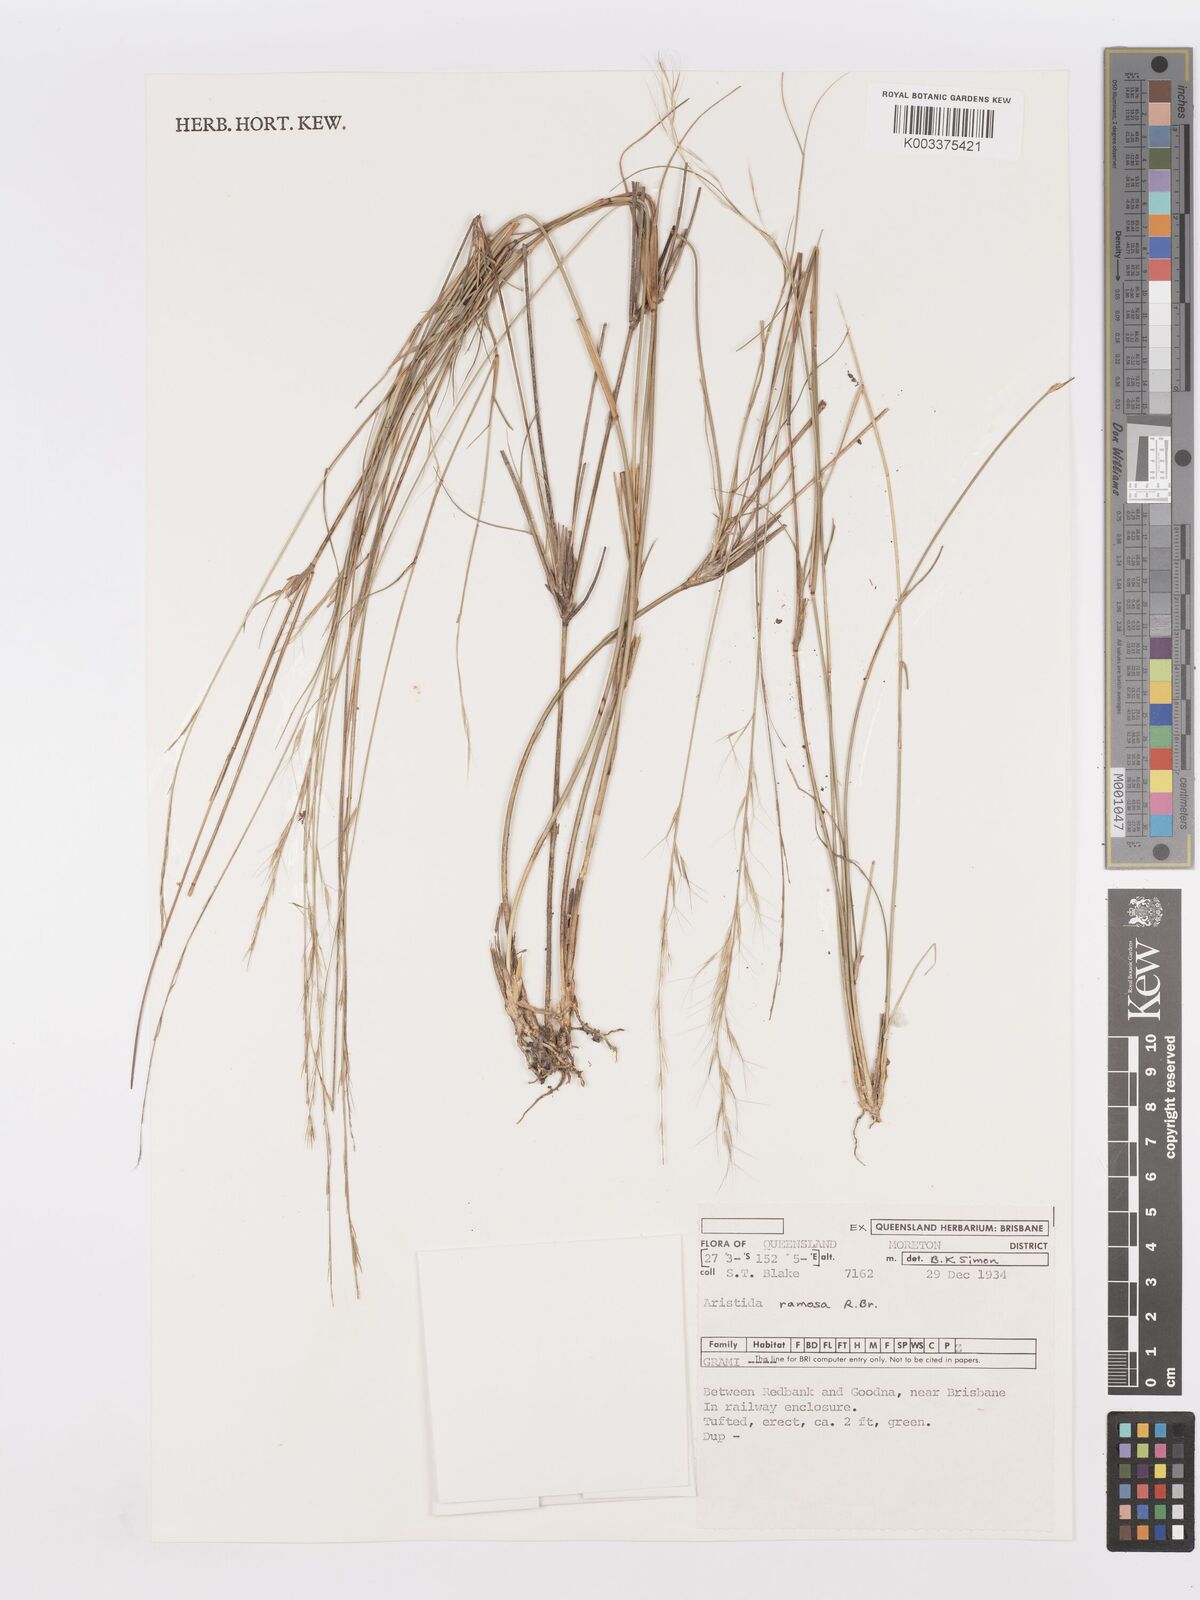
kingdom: Plantae
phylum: Tracheophyta
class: Liliopsida
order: Poales
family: Poaceae
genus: Aristida
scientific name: Aristida ramosa
